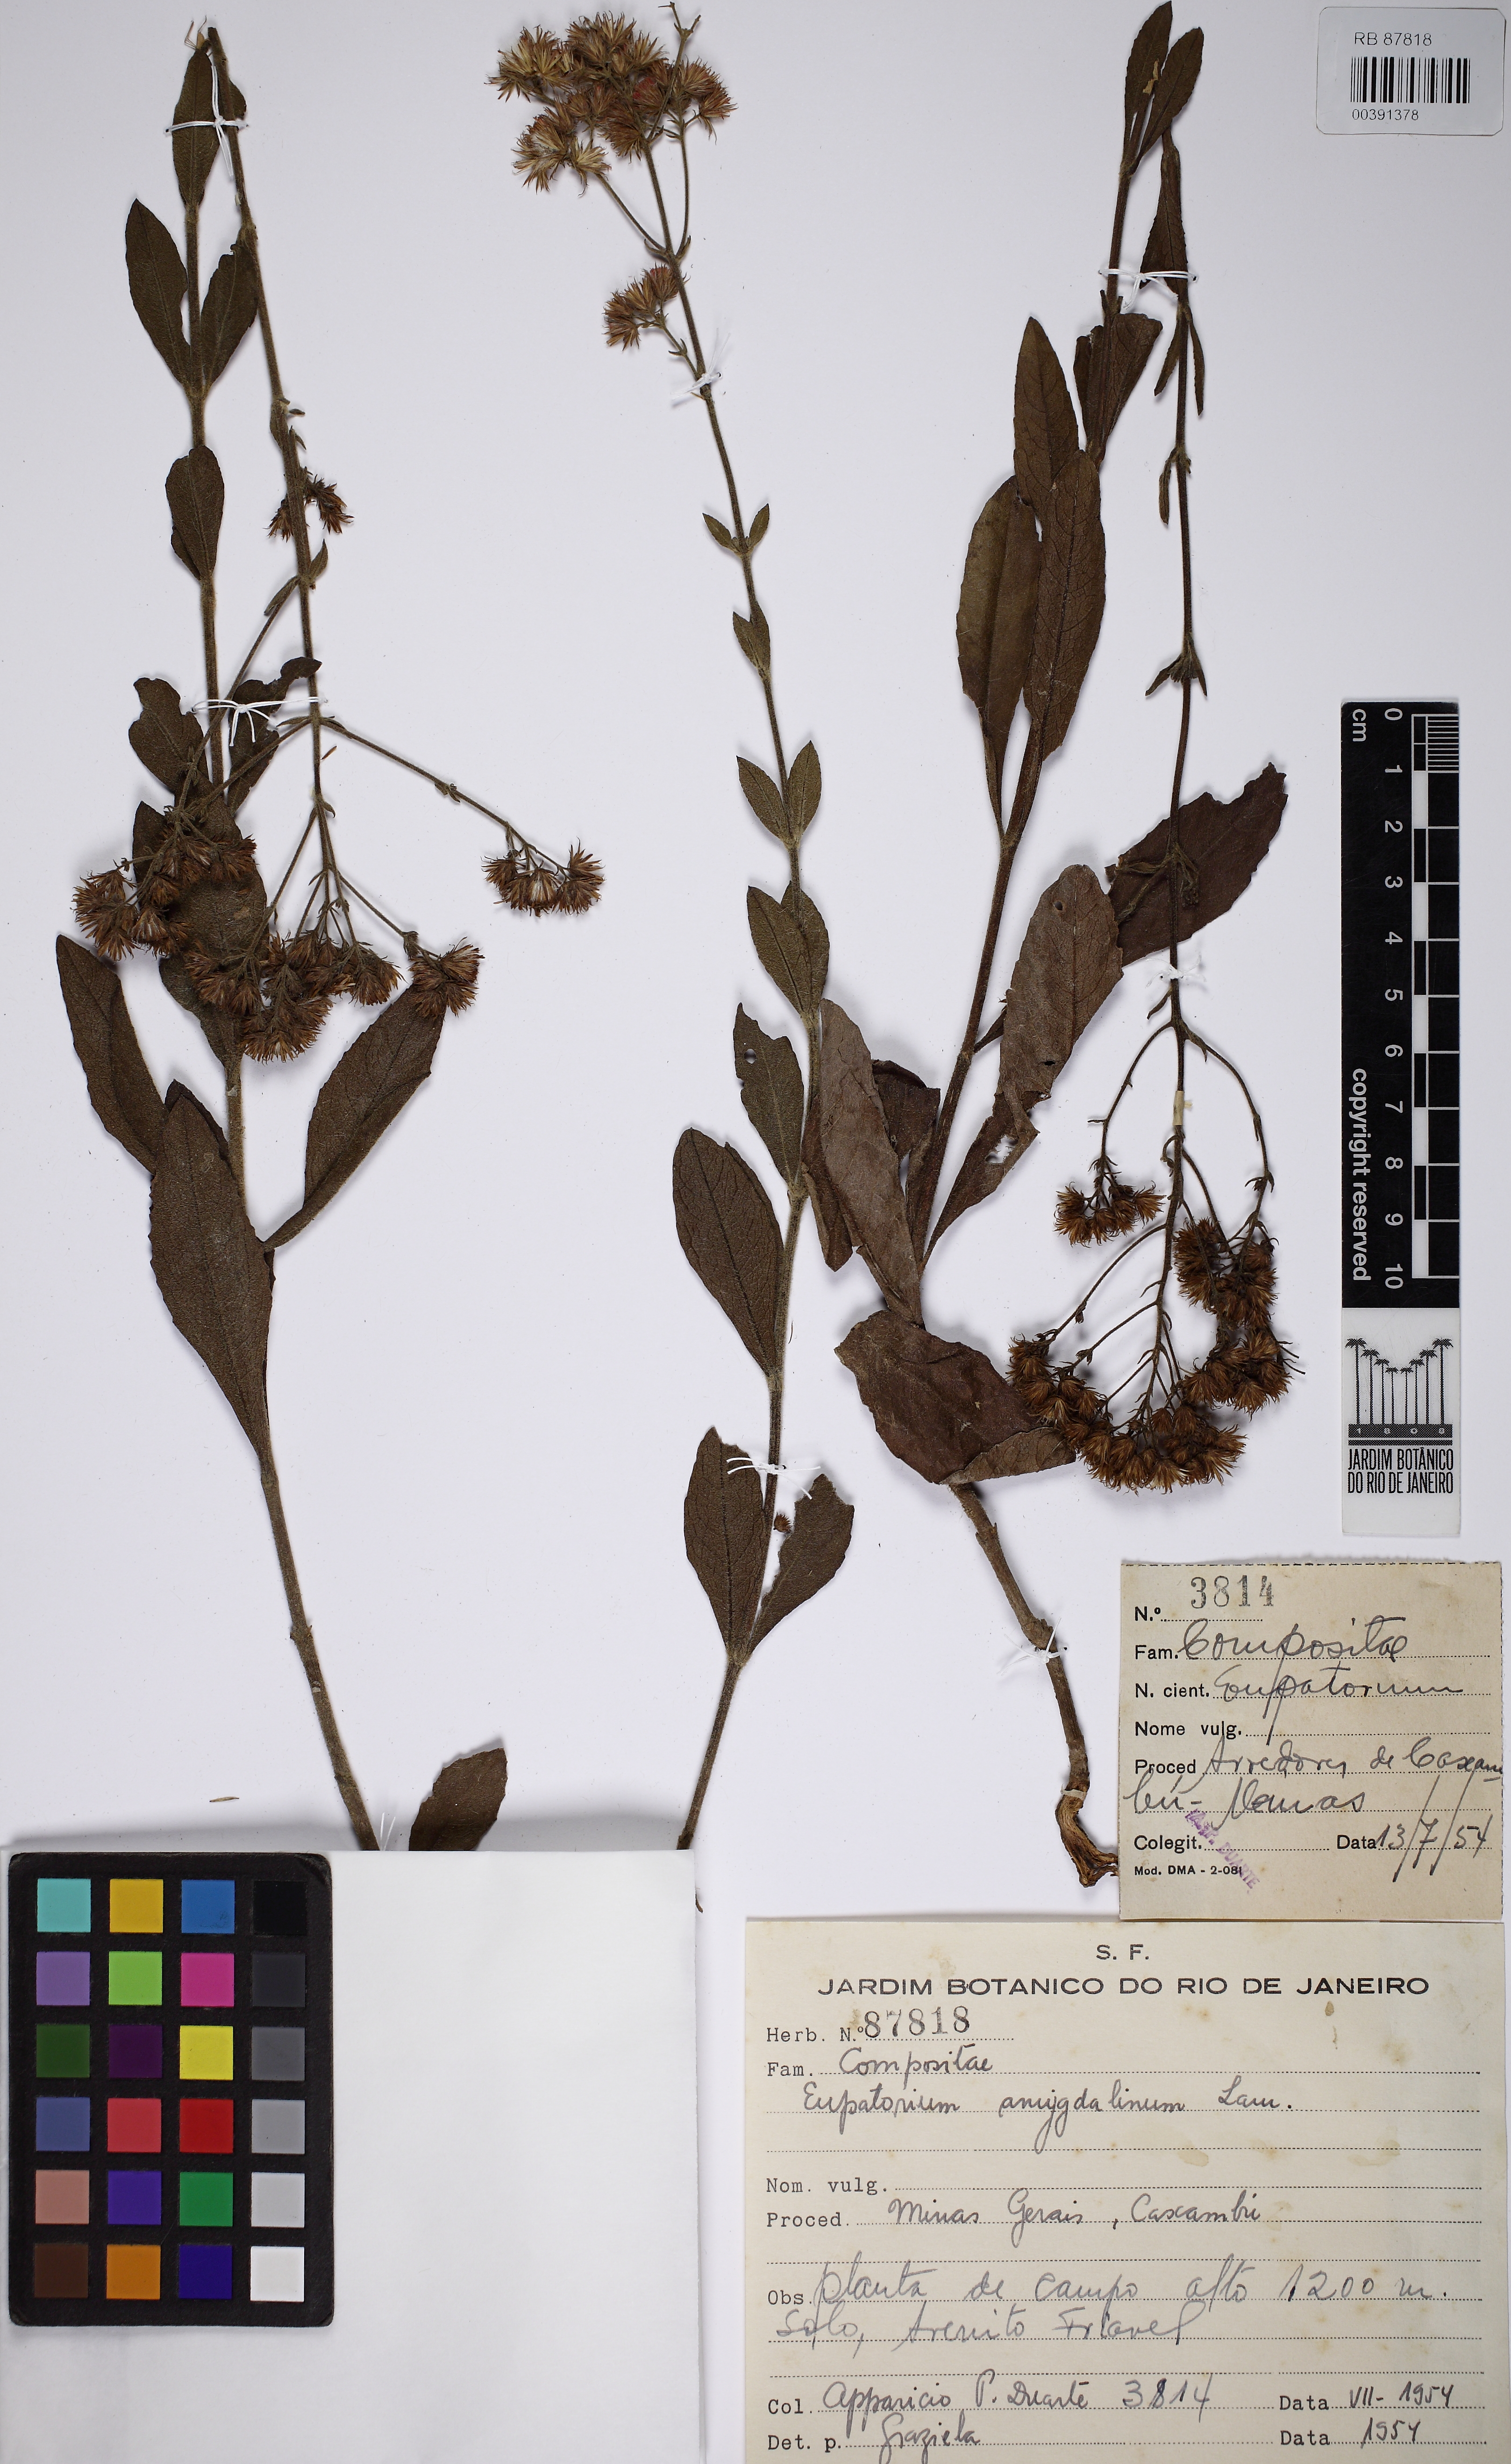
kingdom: Plantae
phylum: Tracheophyta
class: Magnoliopsida
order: Asterales
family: Asteraceae
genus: Ayapana
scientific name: Ayapana amygdalina
